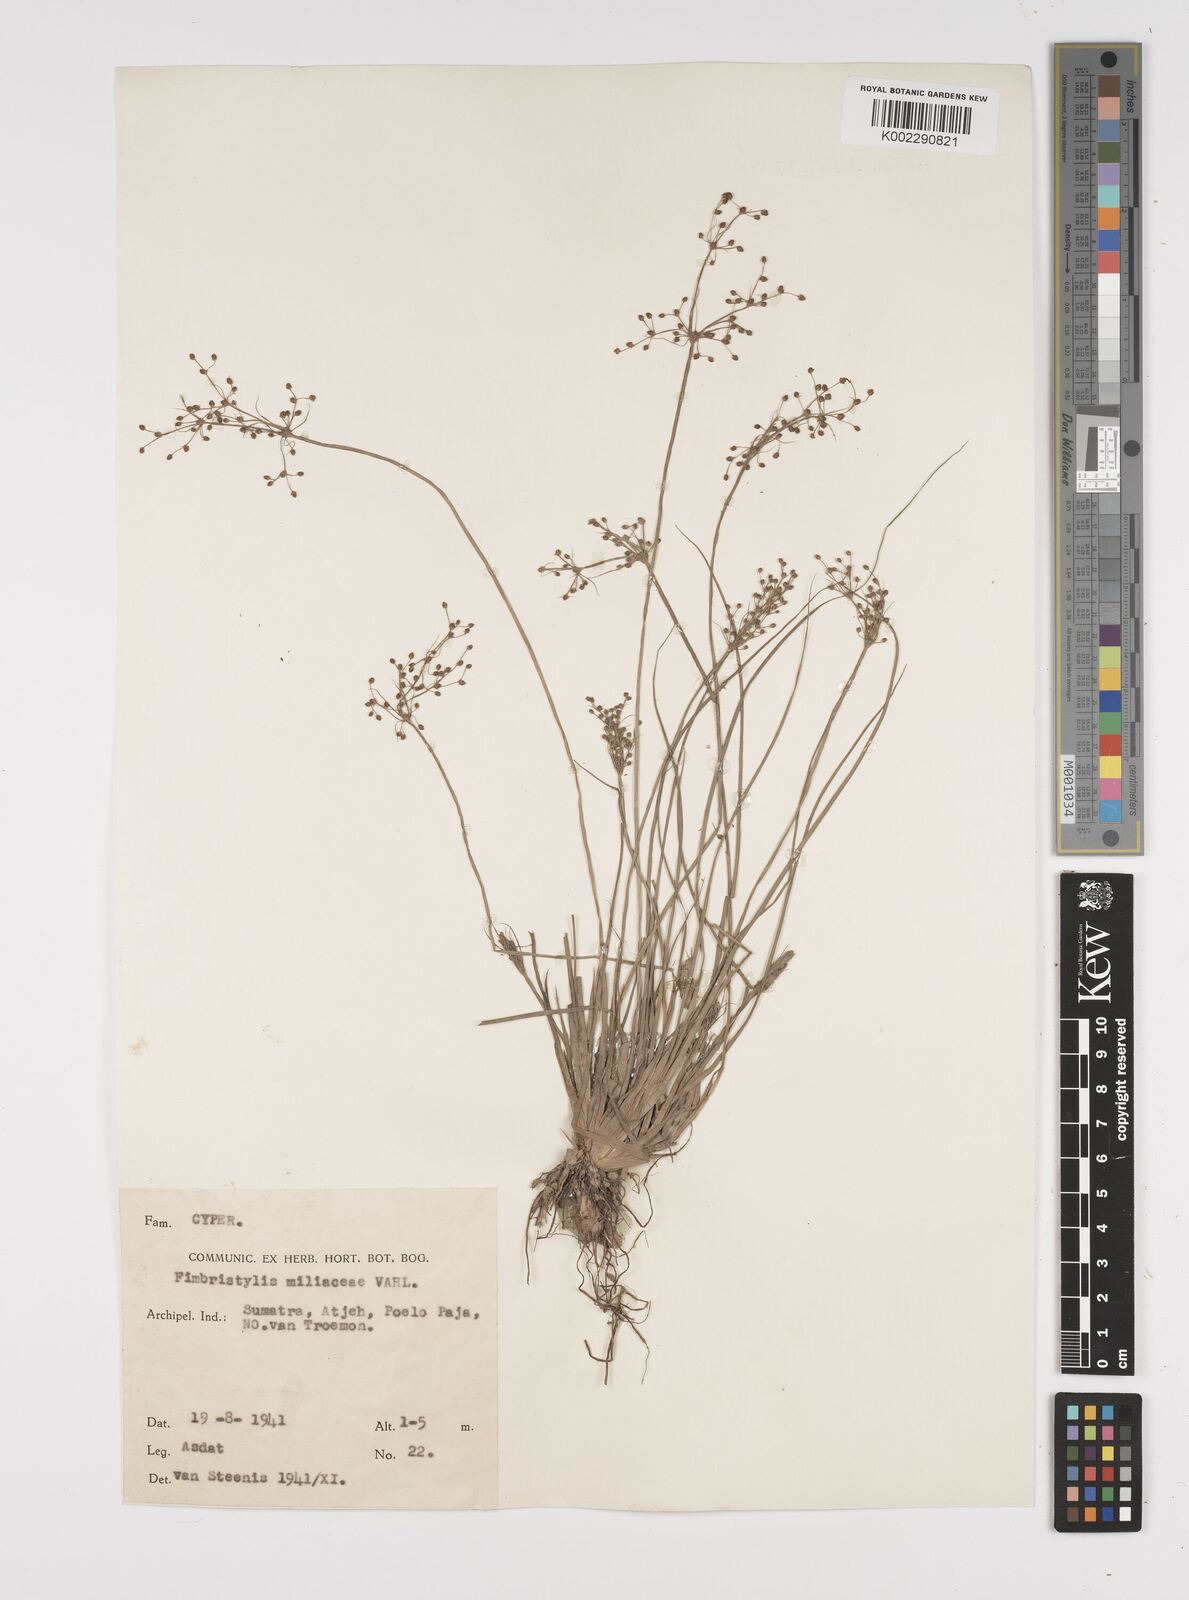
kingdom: Plantae
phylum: Tracheophyta
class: Liliopsida
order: Poales
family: Cyperaceae
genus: Fimbristylis
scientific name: Fimbristylis littoralis
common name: Fimbry
